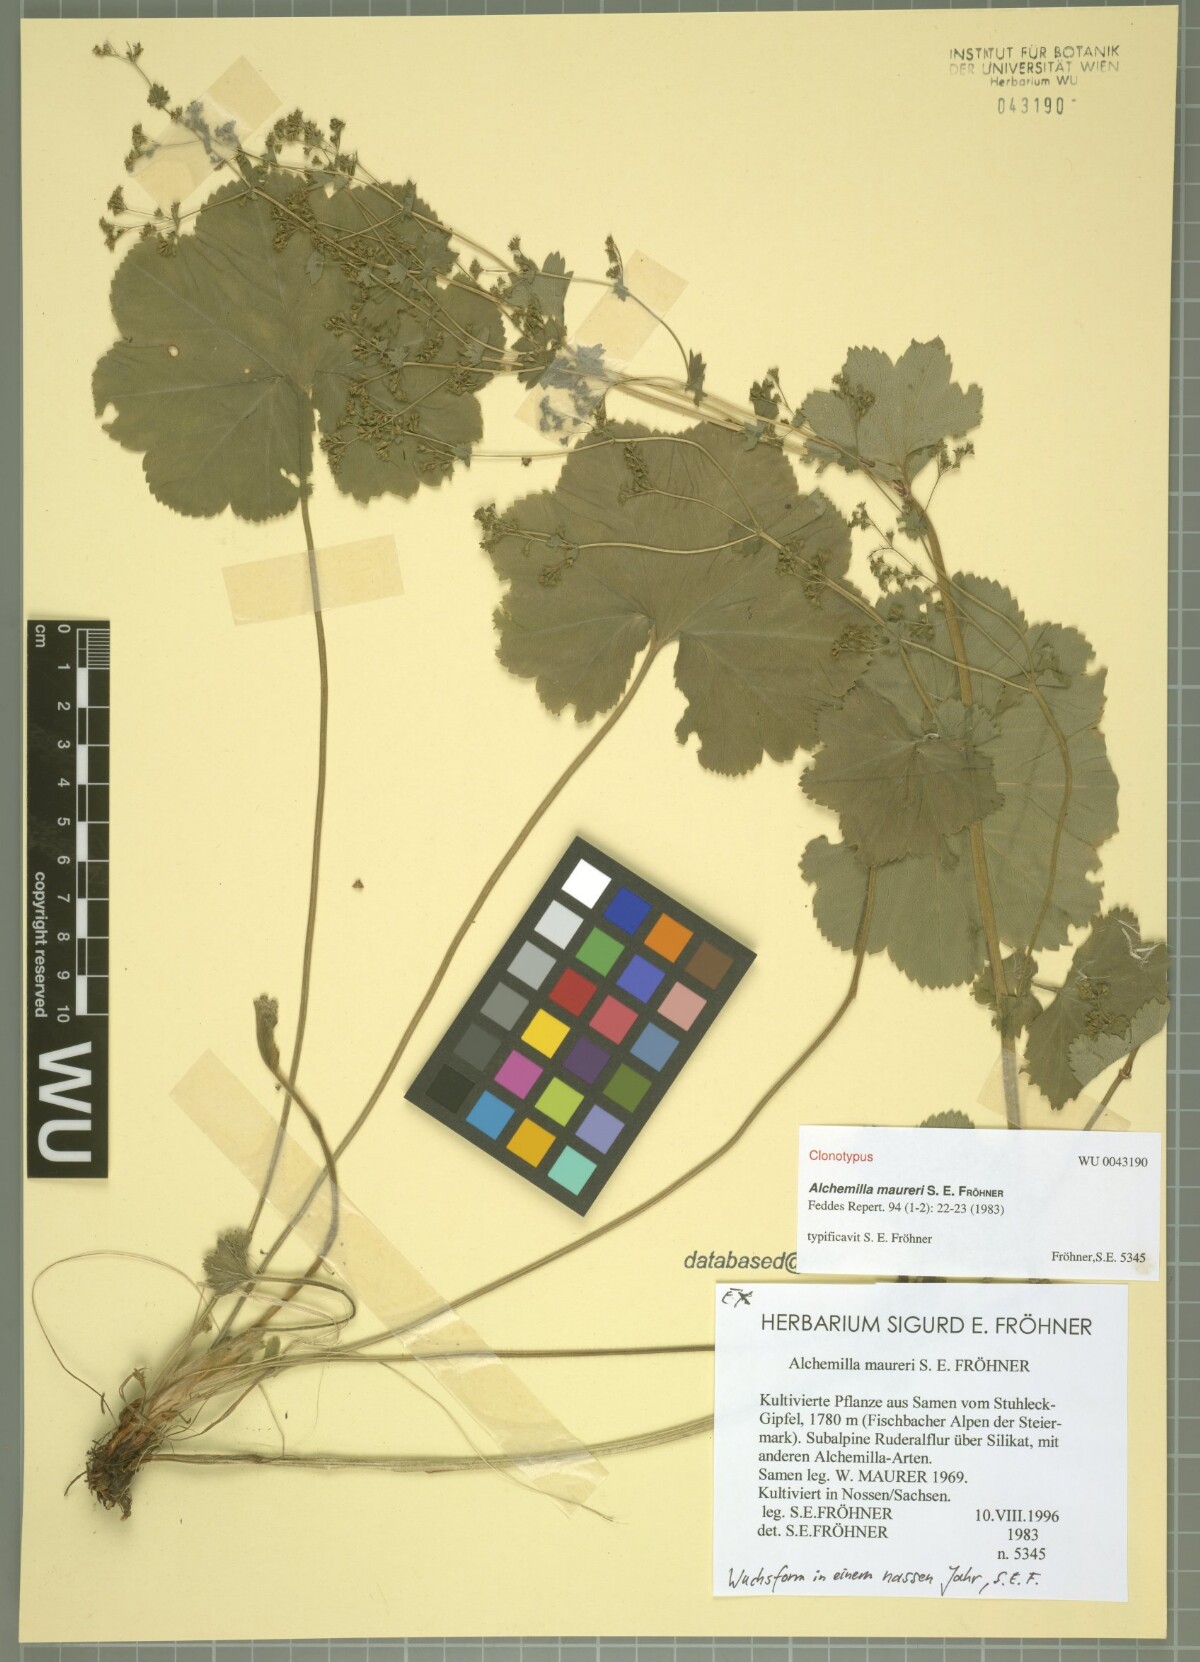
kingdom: Plantae
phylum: Tracheophyta
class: Magnoliopsida
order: Rosales
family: Rosaceae
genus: Alchemilla
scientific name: Alchemilla maureri
